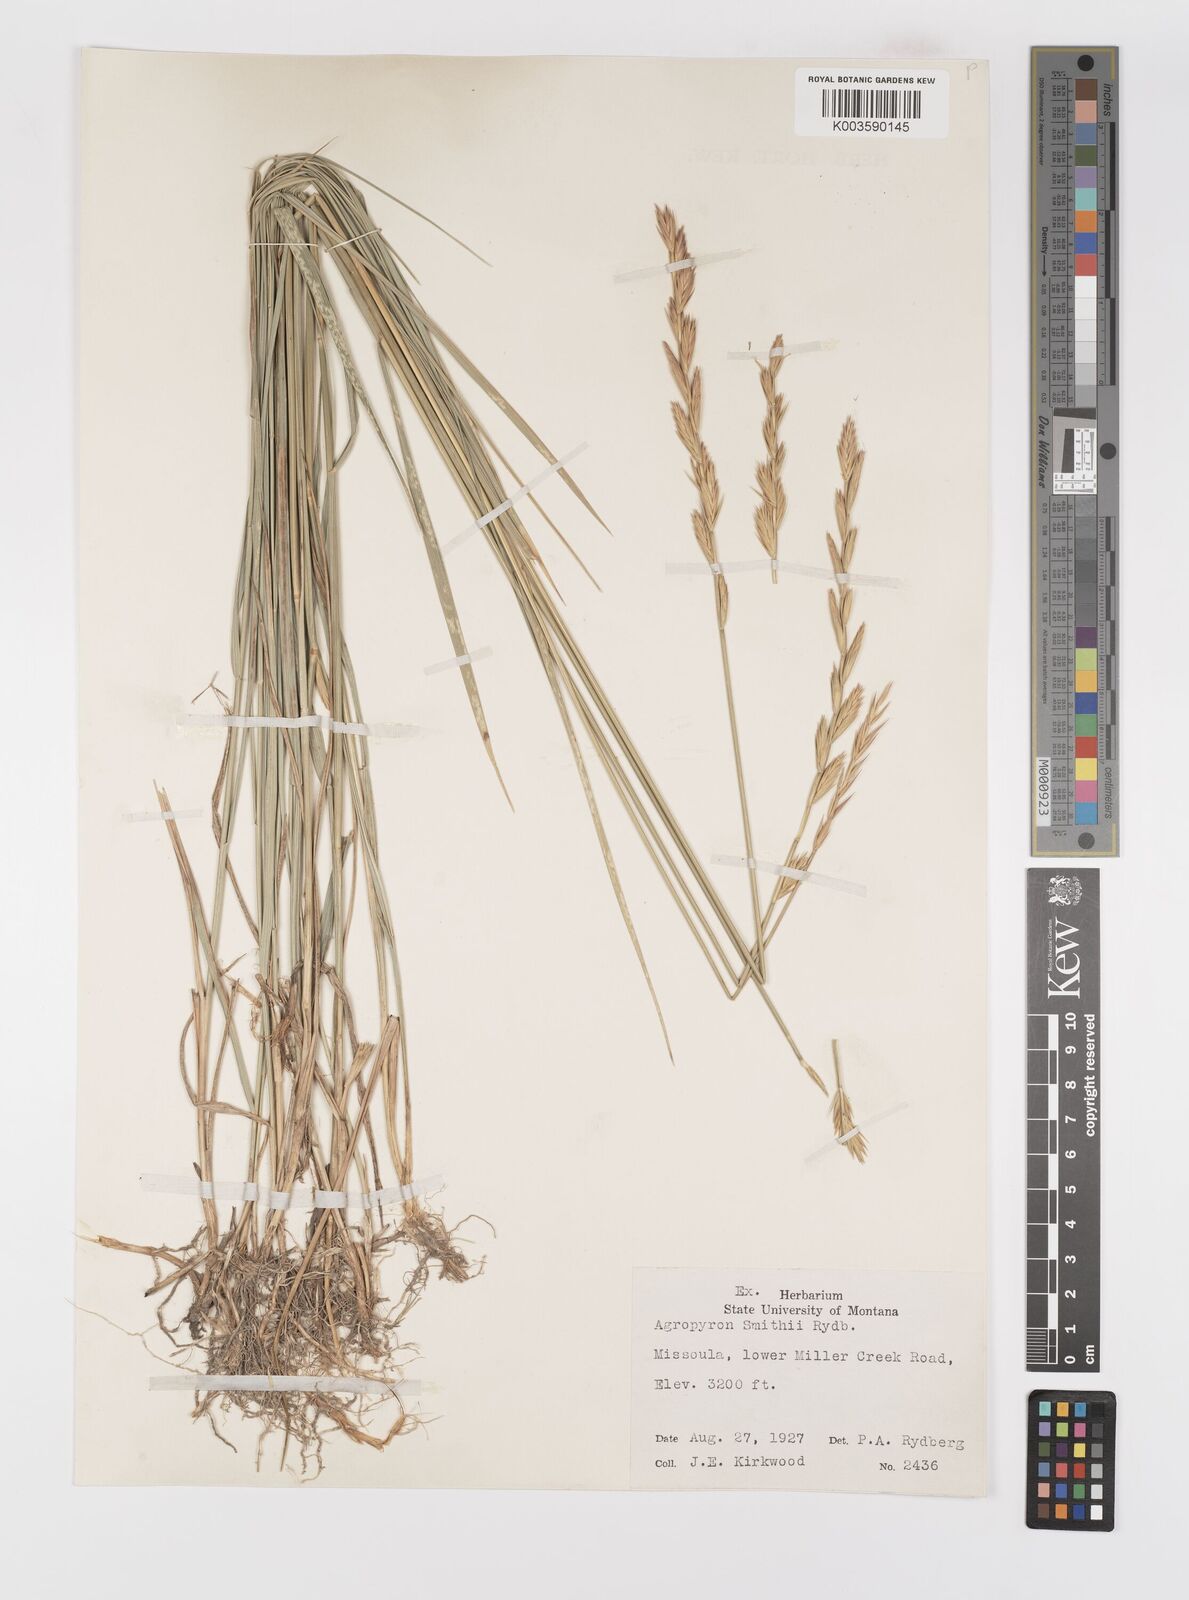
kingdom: Plantae
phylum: Tracheophyta
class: Liliopsida
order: Poales
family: Poaceae
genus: Elymus
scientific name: Elymus smithii
